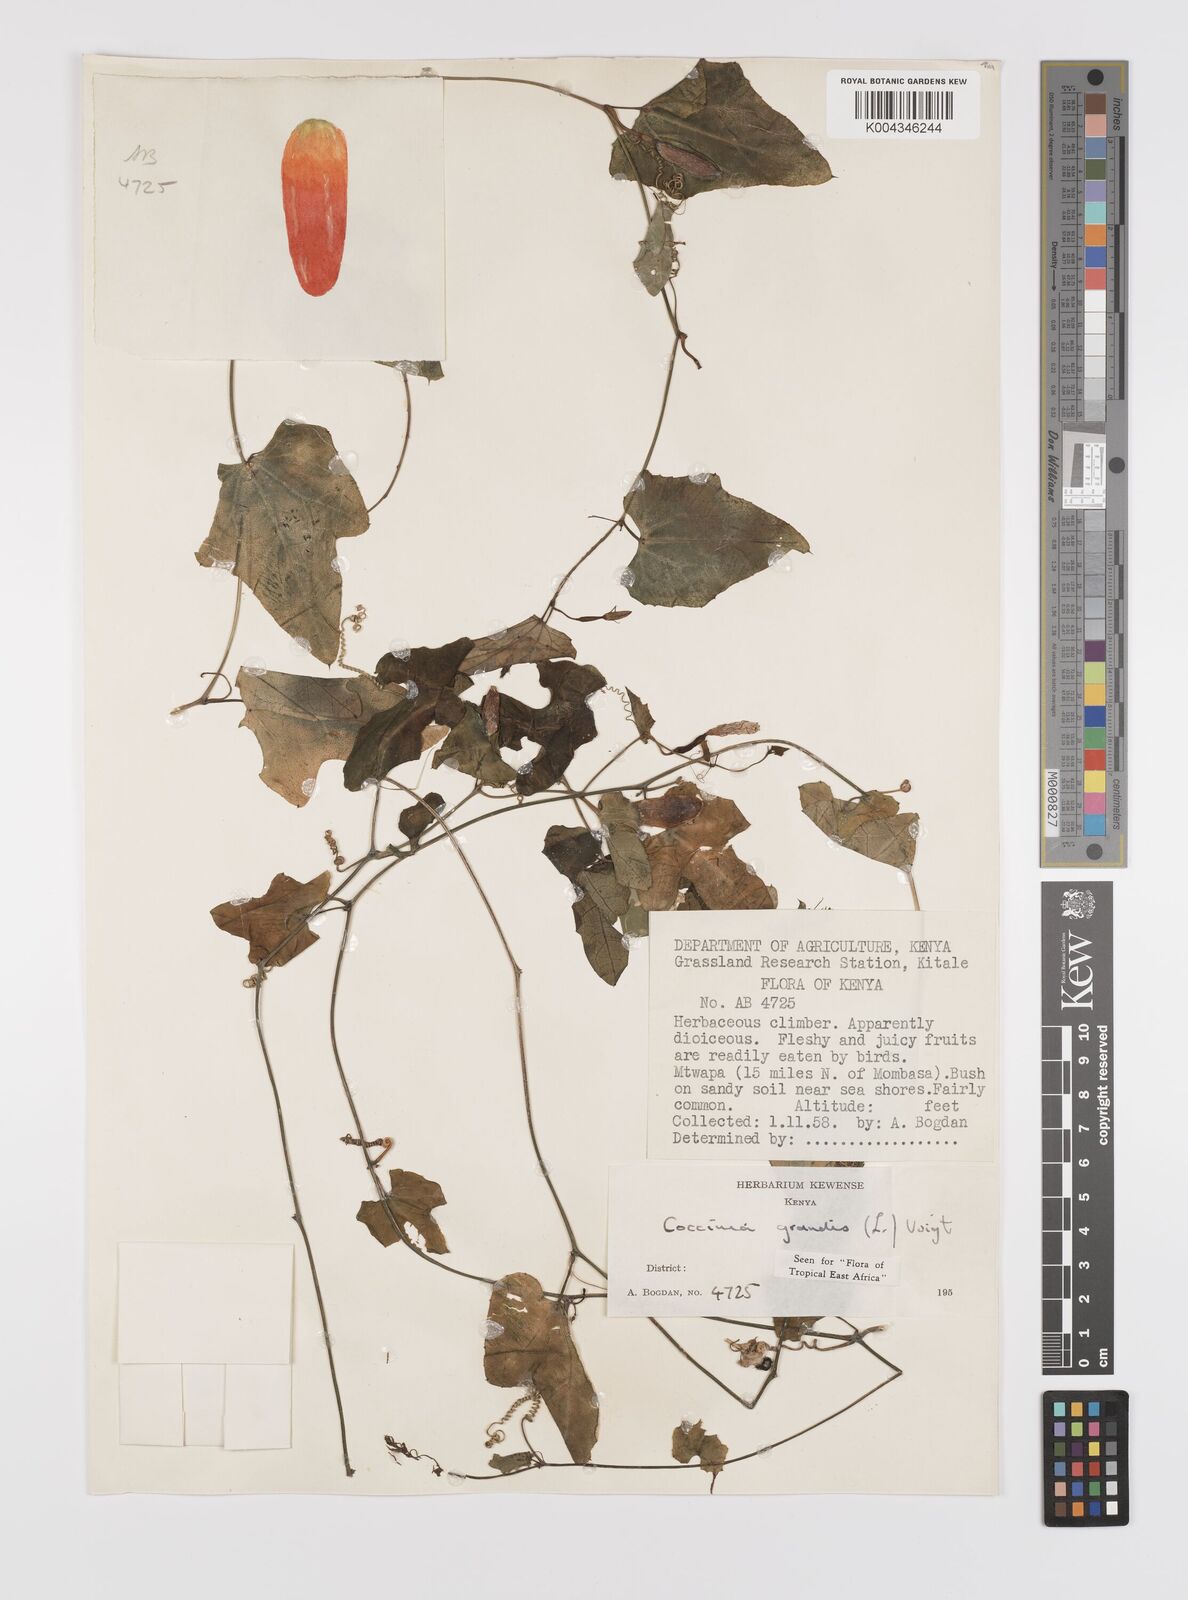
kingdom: Plantae
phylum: Tracheophyta
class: Magnoliopsida
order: Cucurbitales
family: Cucurbitaceae
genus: Coccinia
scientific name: Coccinia grandis
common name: Ivy gourd
